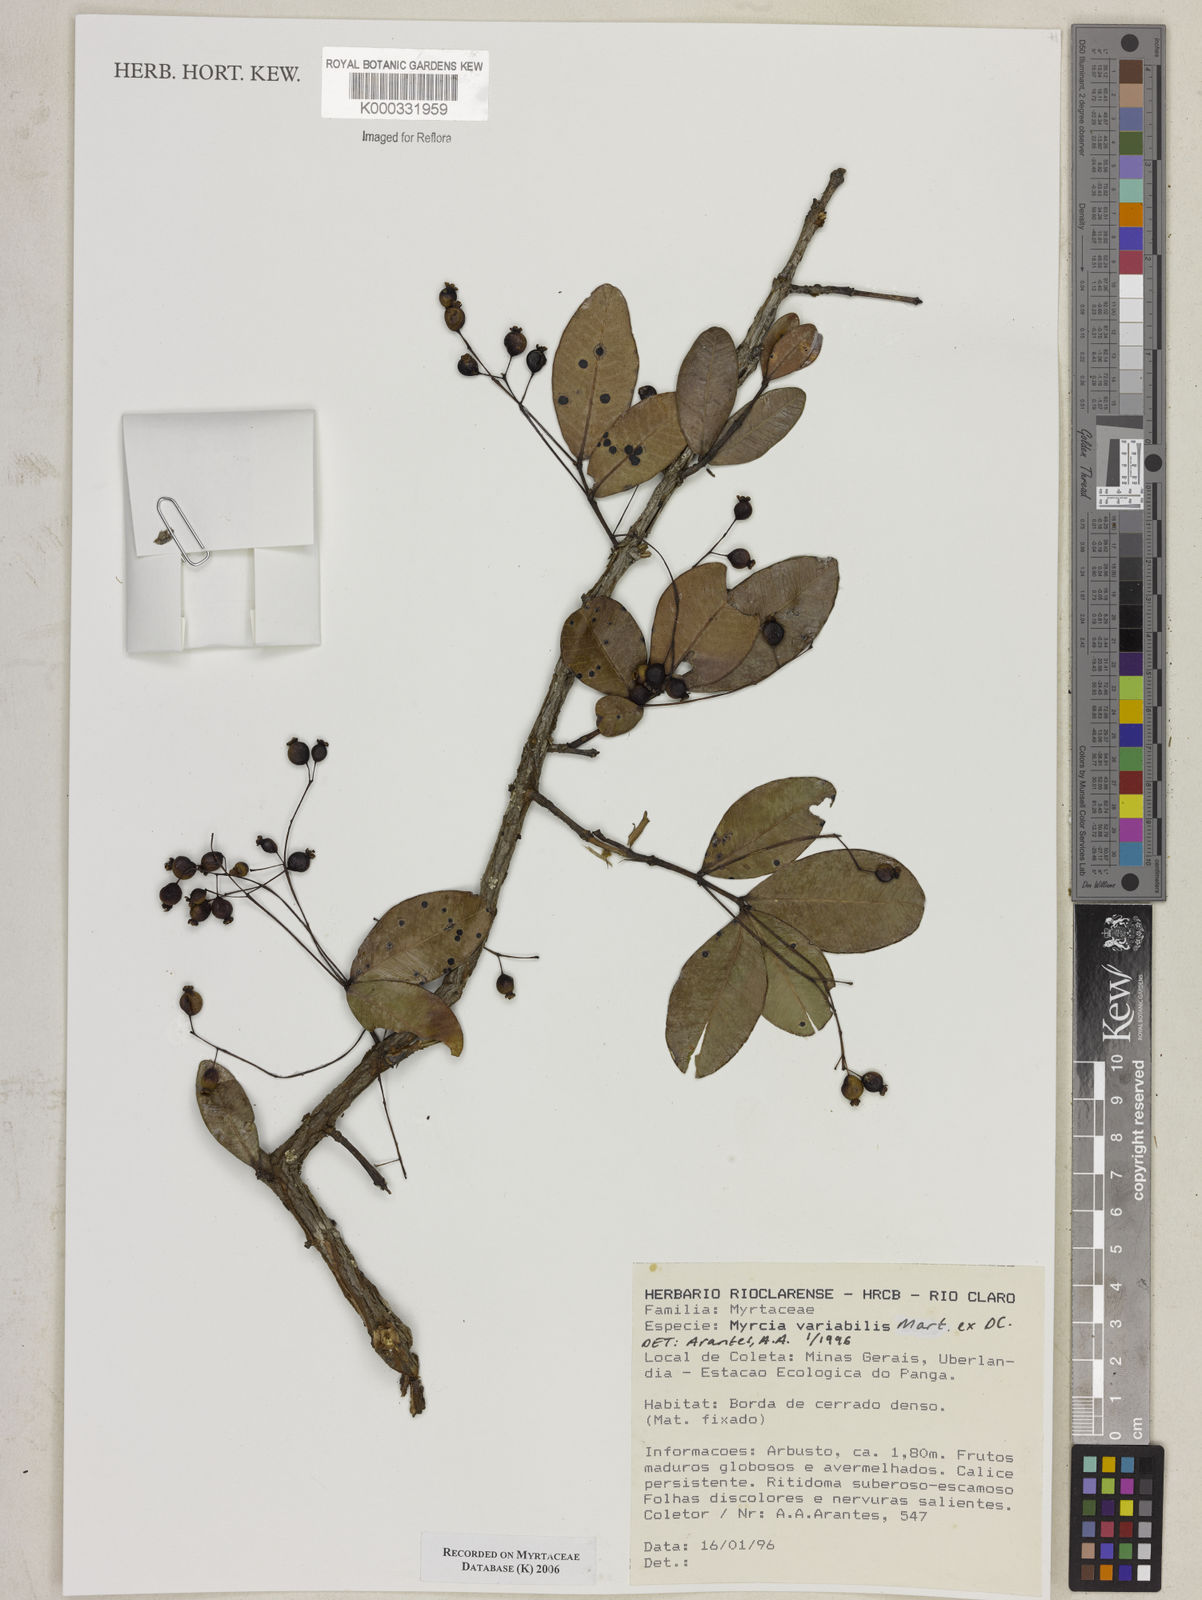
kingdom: Plantae
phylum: Tracheophyta
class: Magnoliopsida
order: Myrtales
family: Myrtaceae
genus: Myrcia
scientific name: Myrcia variabilis
